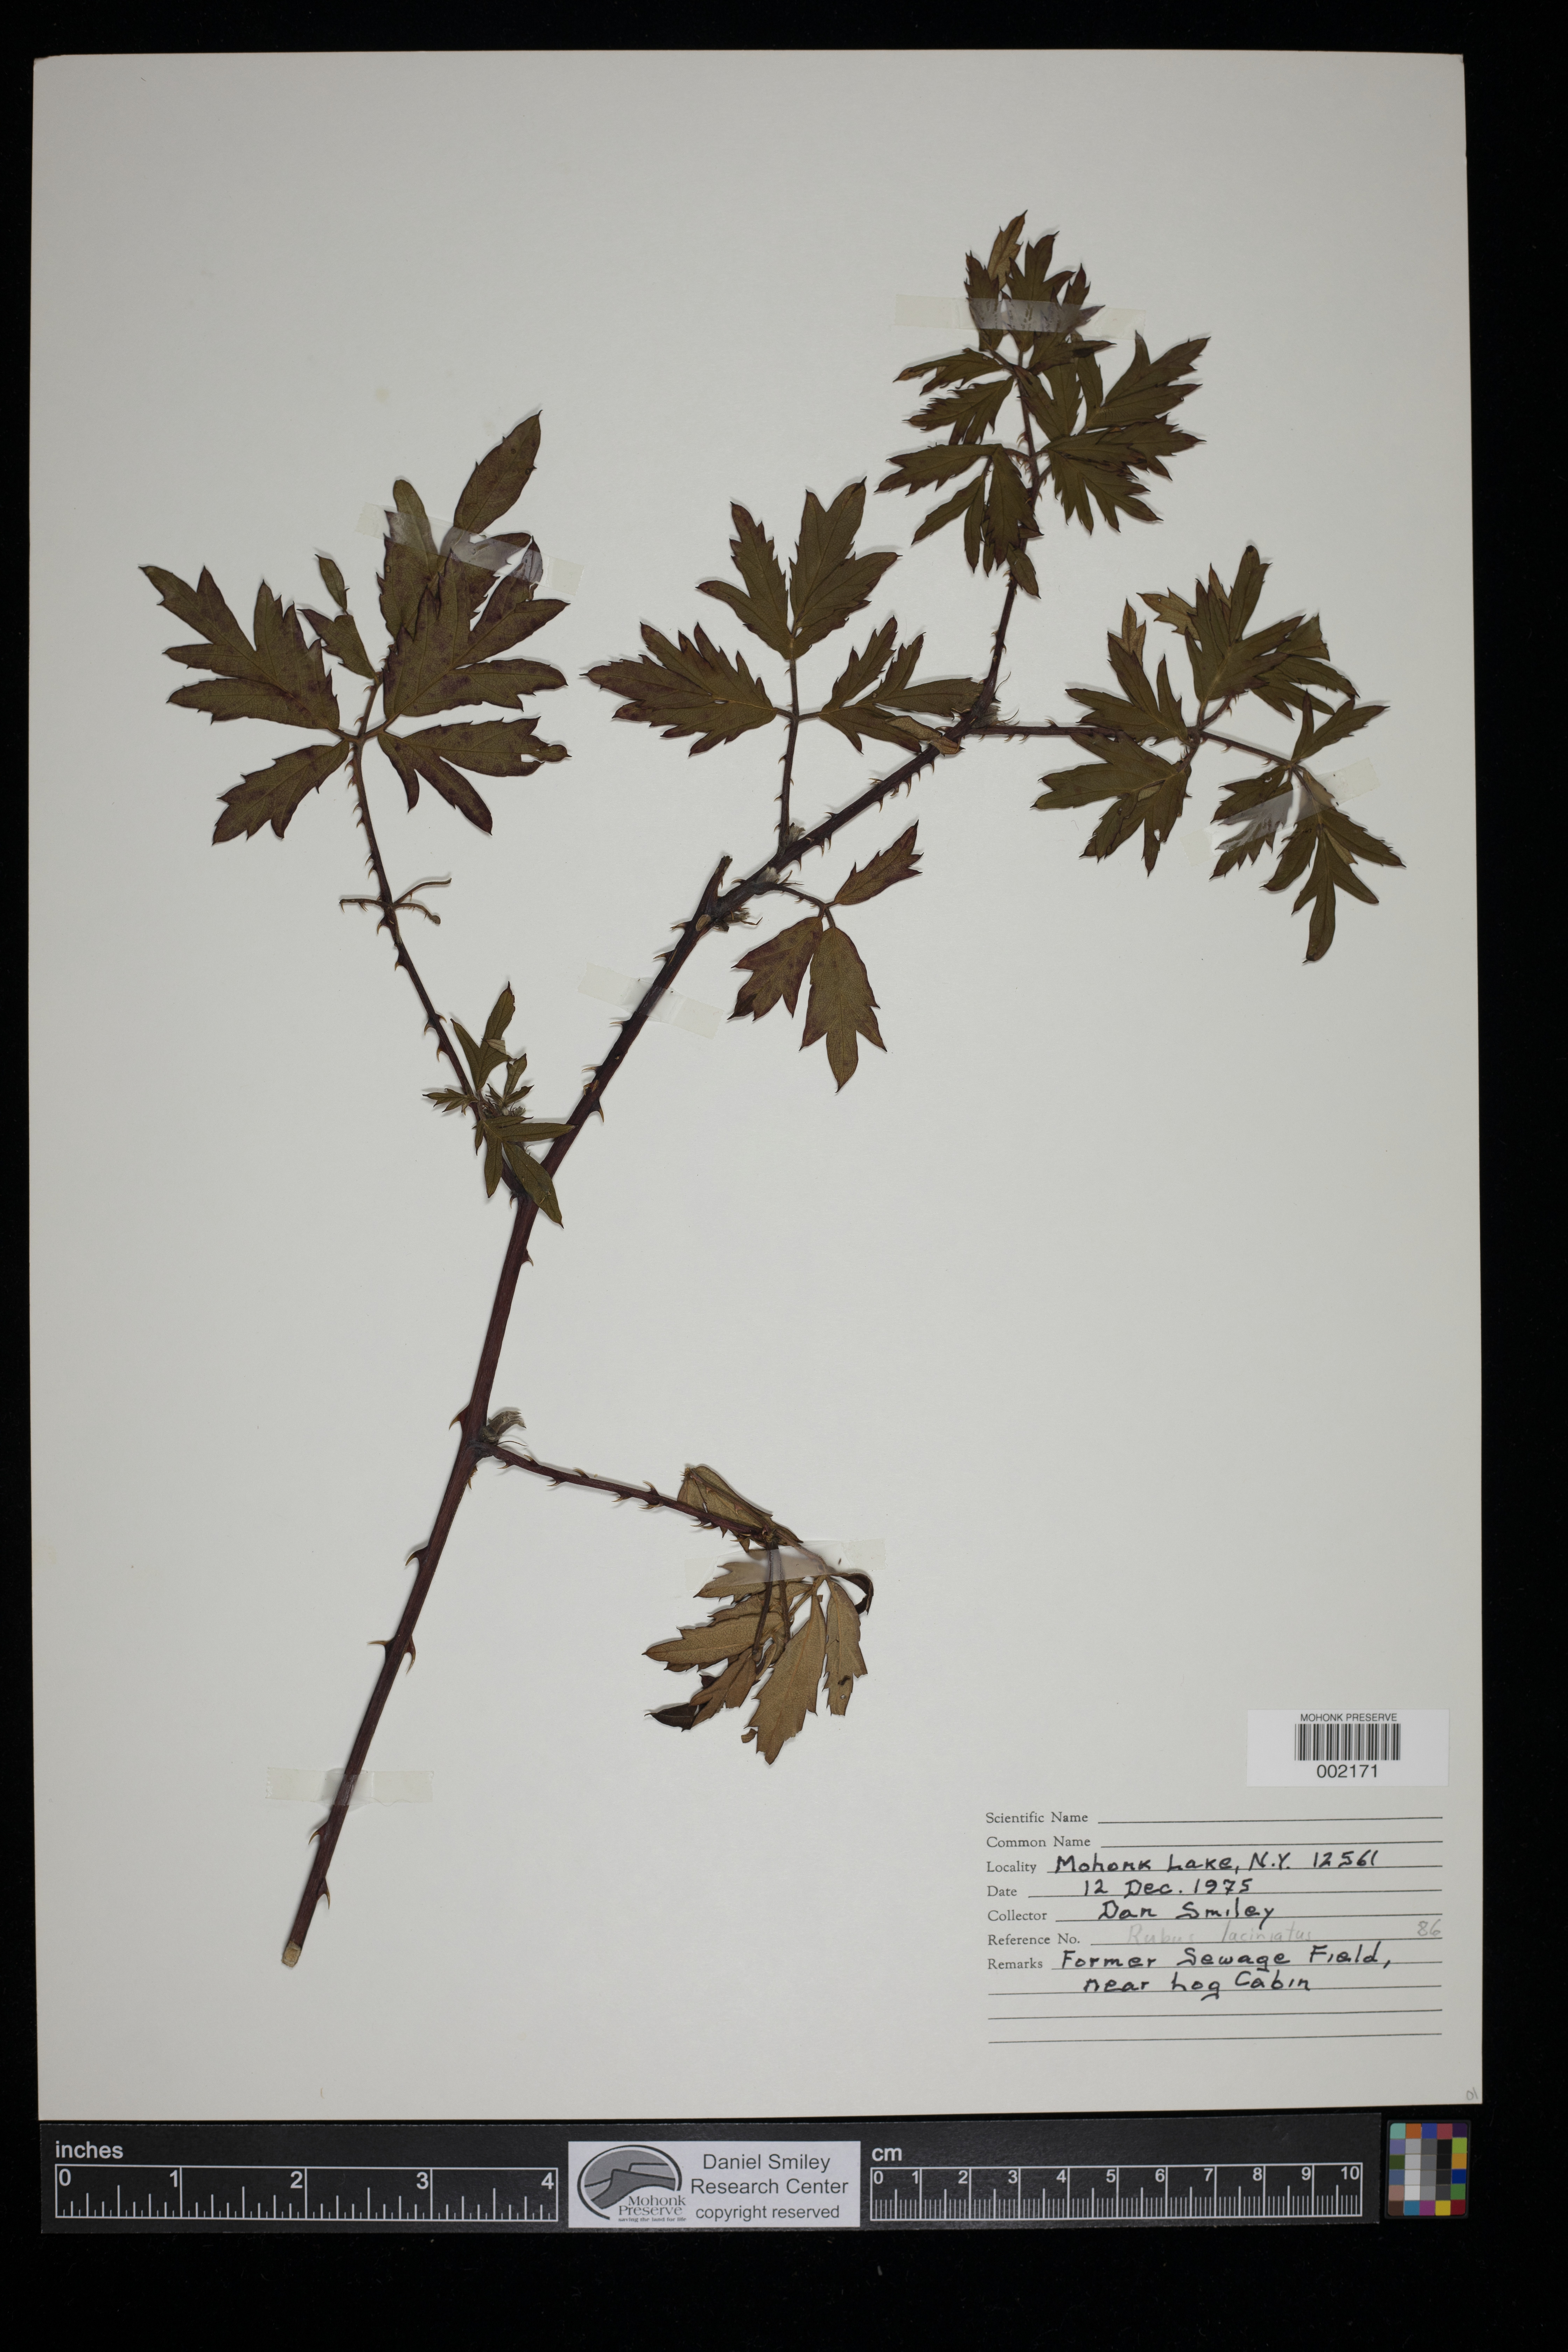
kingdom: Plantae
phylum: Tracheophyta
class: Magnoliopsida
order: Rosales
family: Rosaceae
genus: Rubus
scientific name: Rubus laciniatus
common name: Evergreen blackberry
